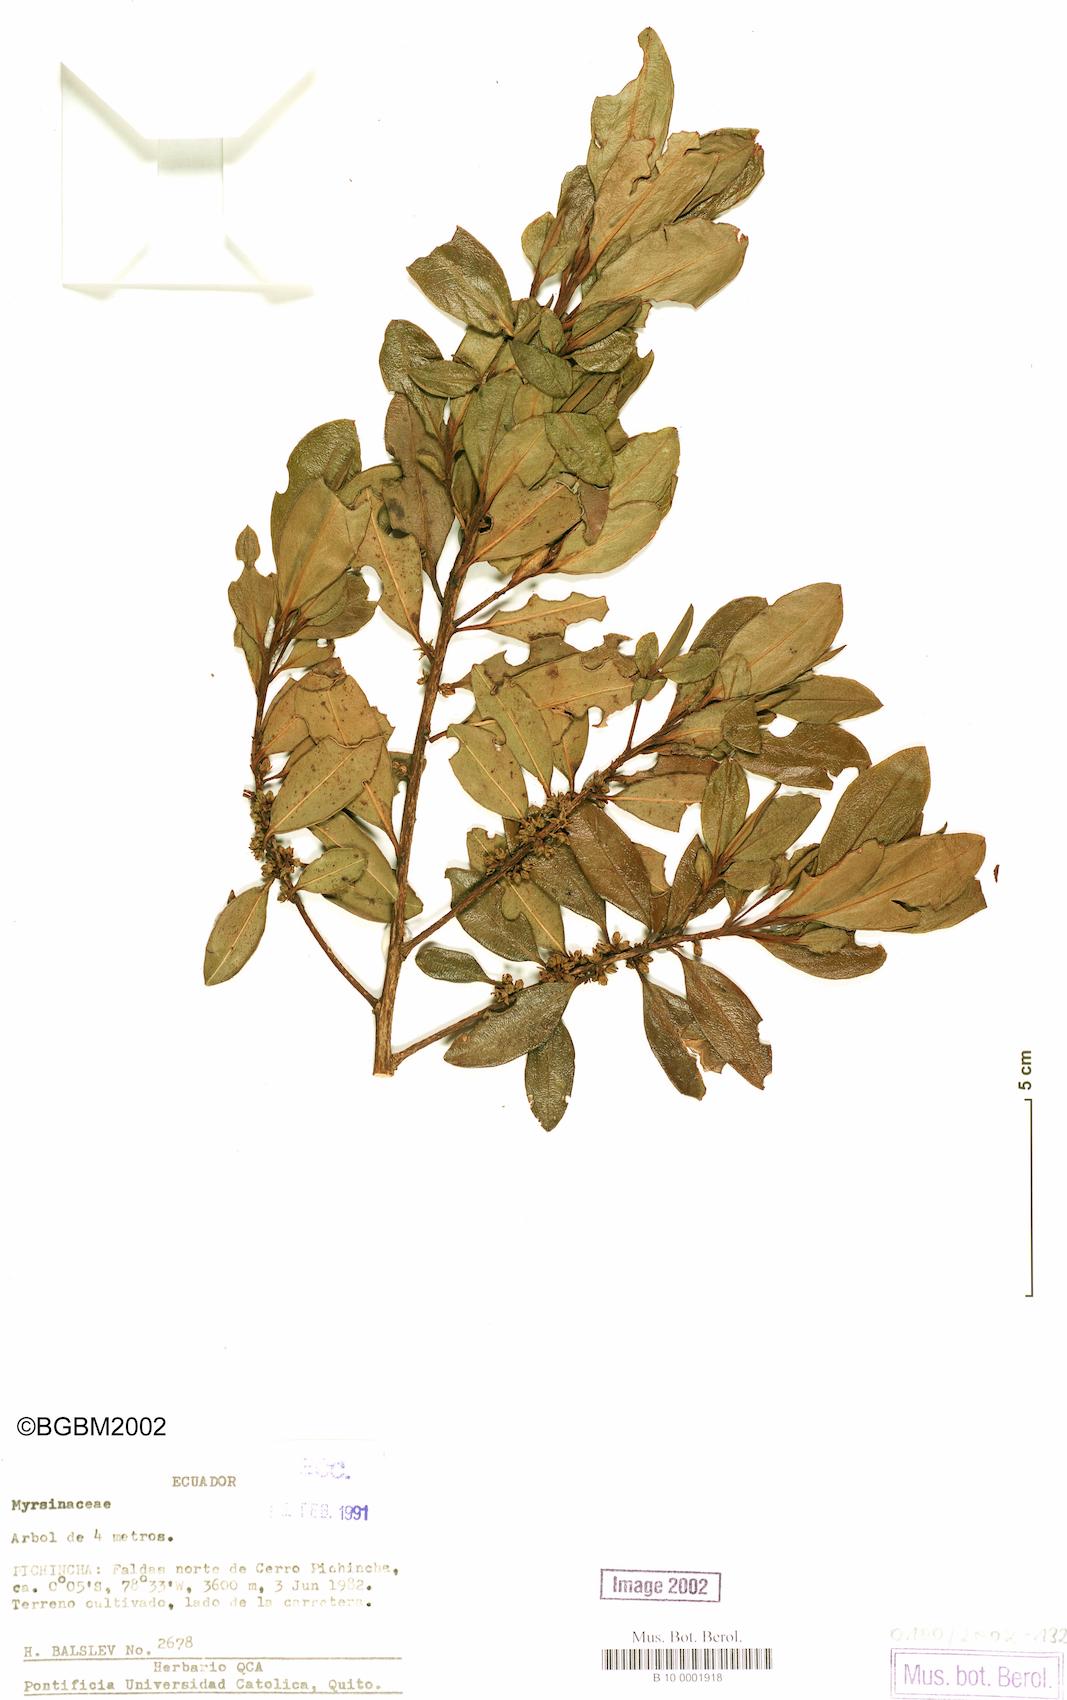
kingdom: Plantae
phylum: Tracheophyta
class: Liliopsida
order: Asparagales
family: Asparagaceae
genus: Chlorophytum
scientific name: Chlorophytum viscosum
